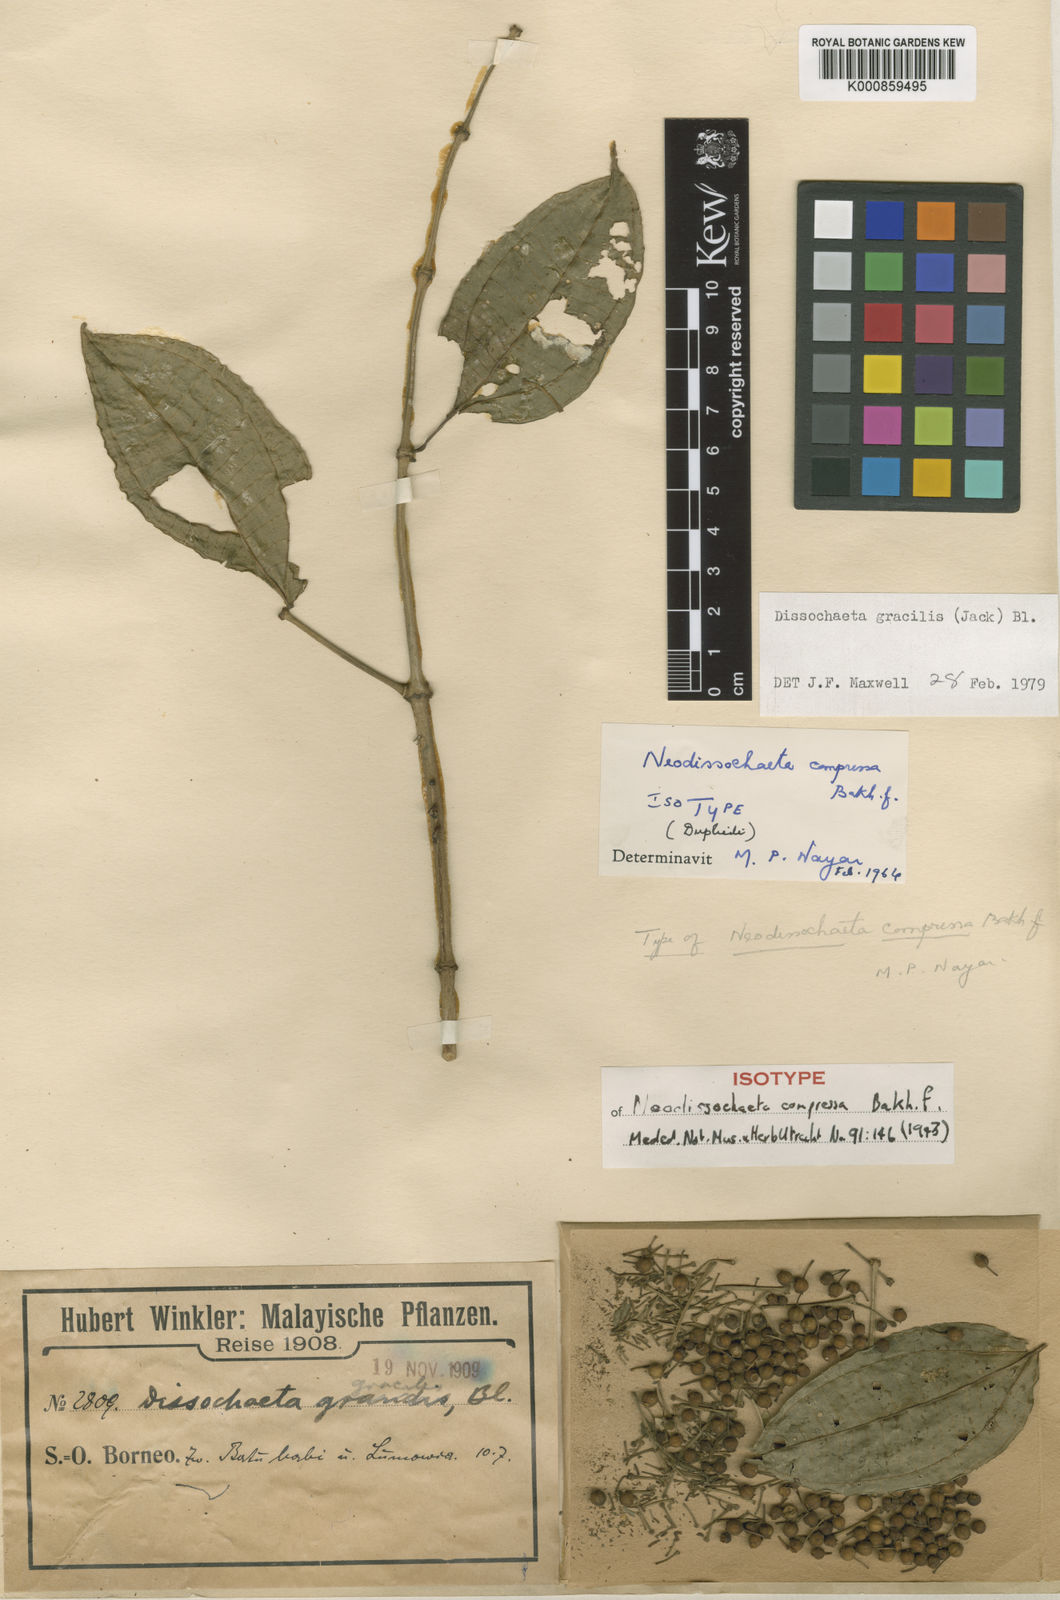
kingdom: Plantae
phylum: Tracheophyta
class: Magnoliopsida
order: Myrtales
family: Melastomataceae
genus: Dissochaeta
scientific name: Dissochaeta gracilis
